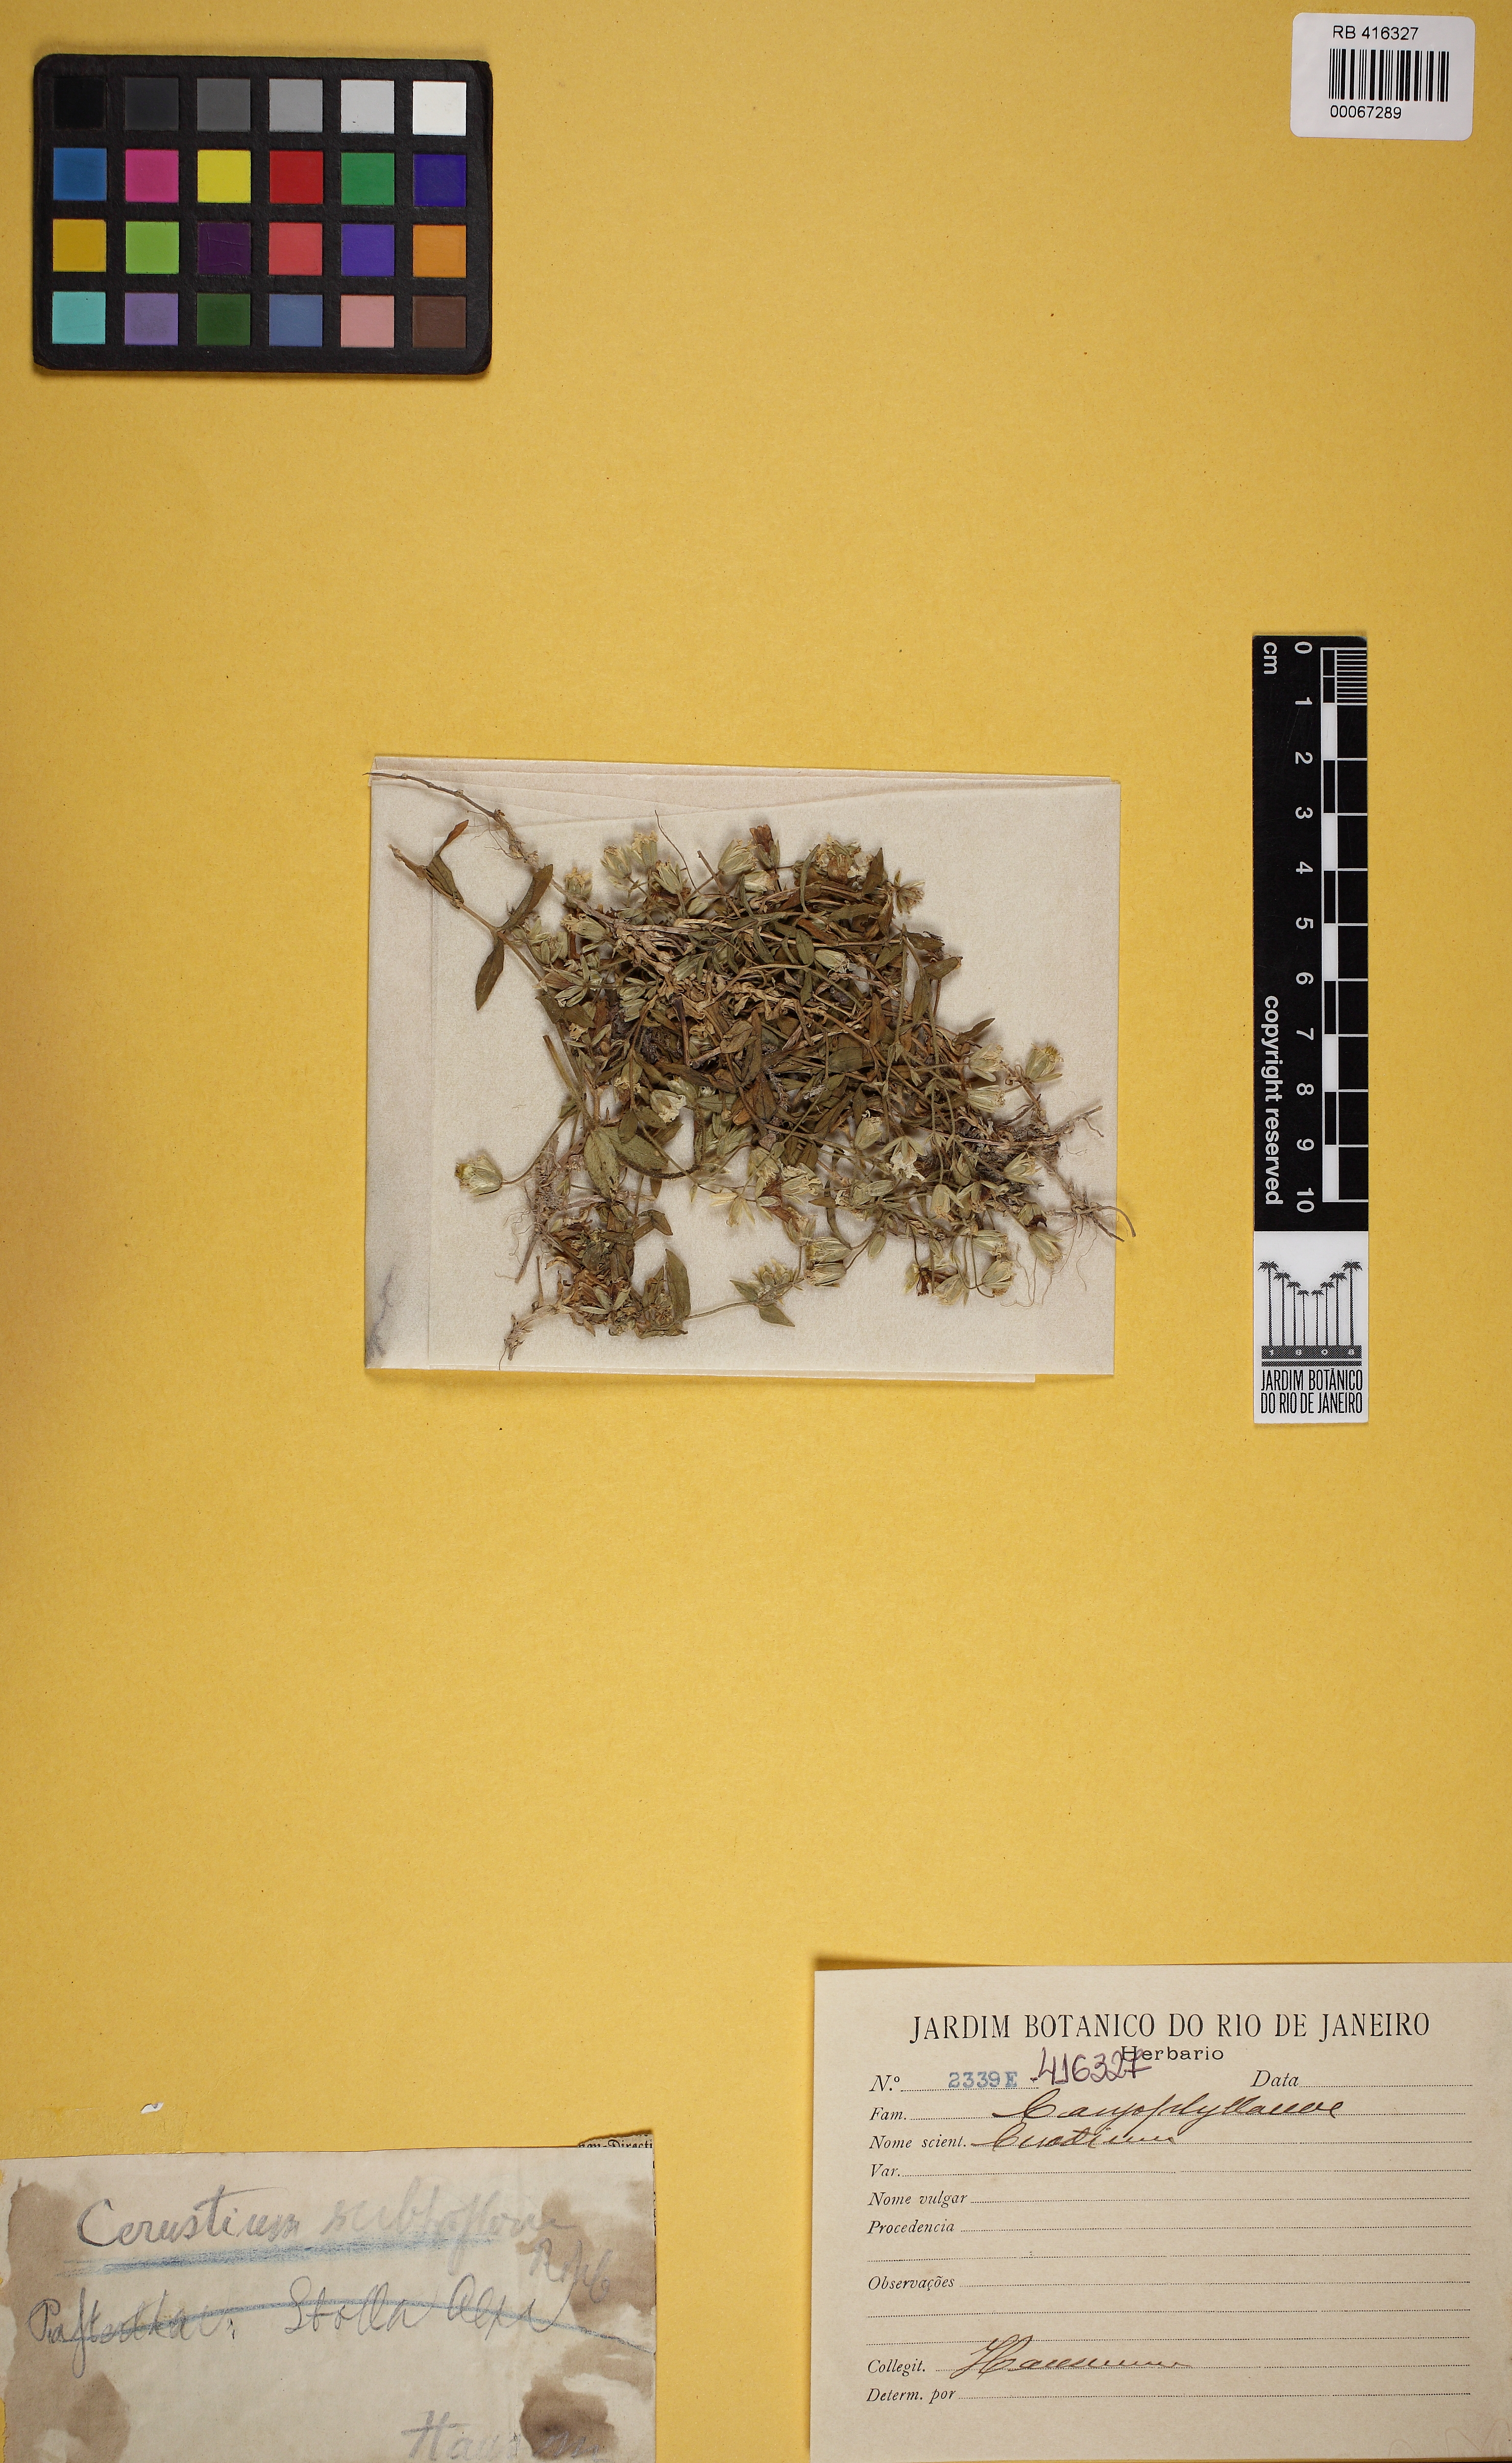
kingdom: Plantae
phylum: Tracheophyta
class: Magnoliopsida
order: Caryophyllales
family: Caryophyllaceae
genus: Cerastium
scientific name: Cerastium
